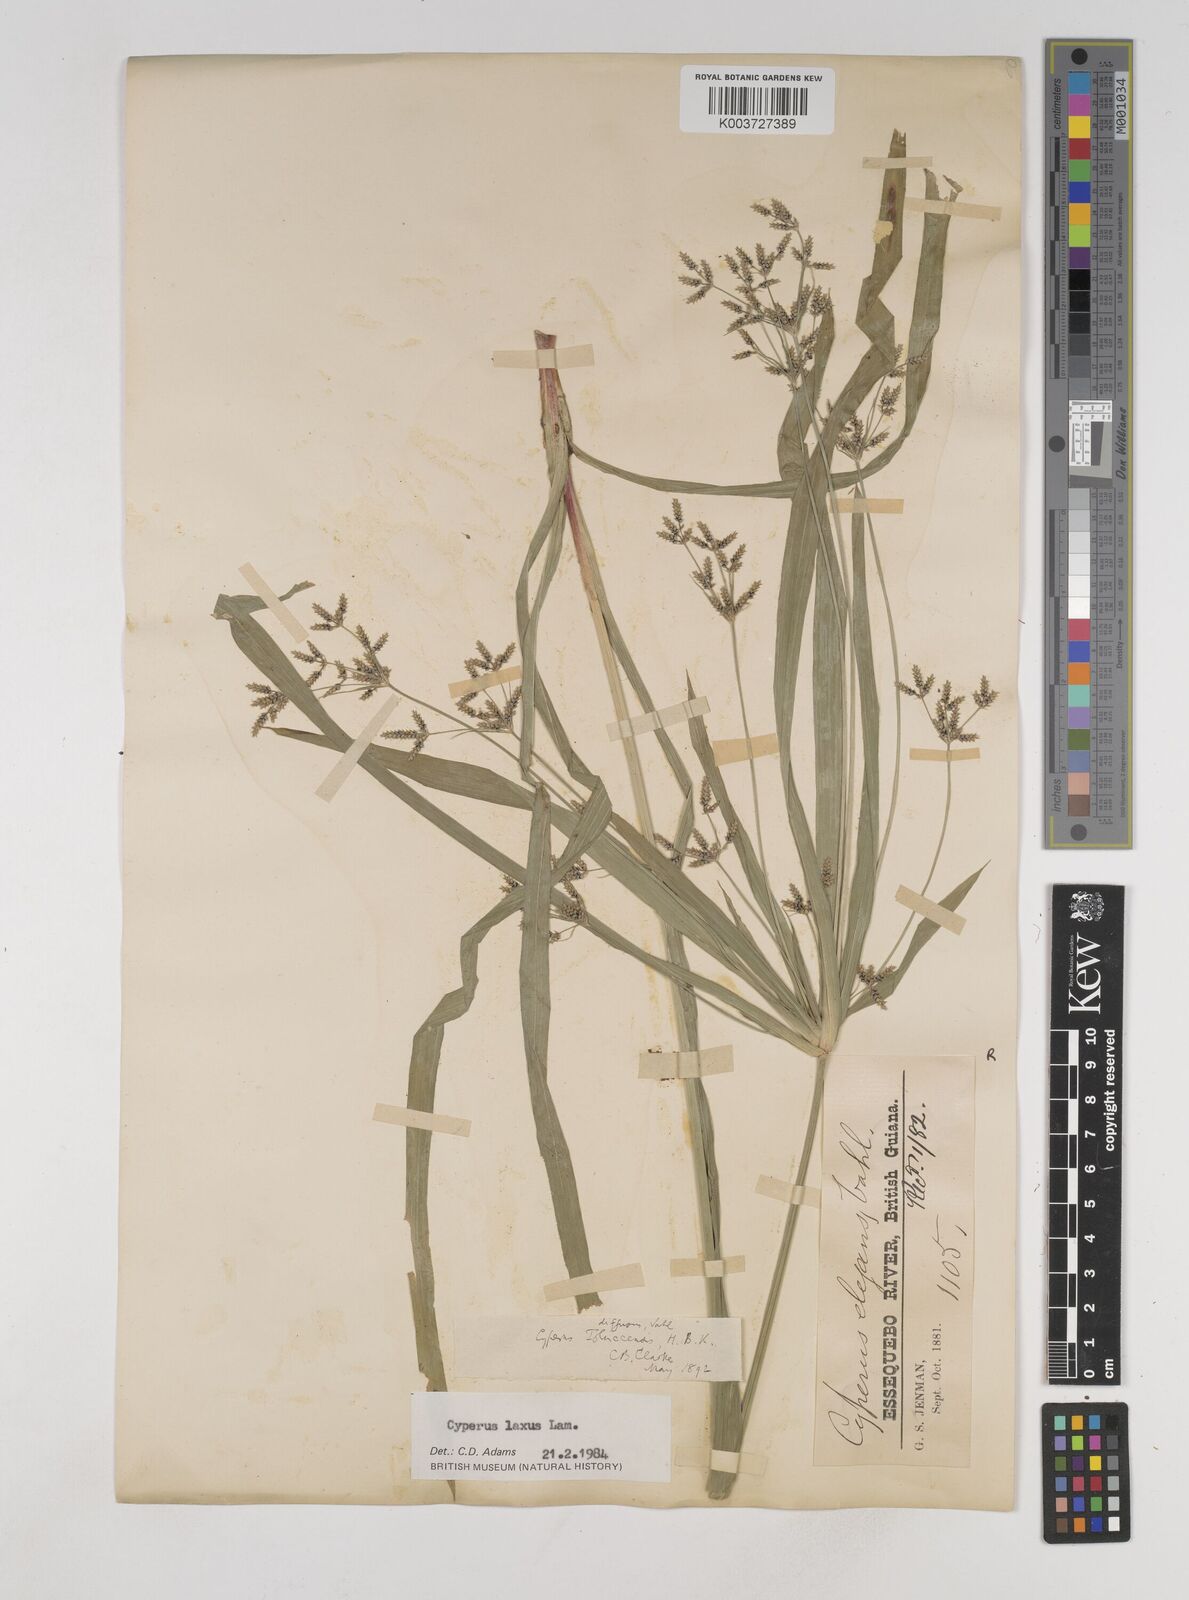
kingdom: Plantae
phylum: Tracheophyta
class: Liliopsida
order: Poales
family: Cyperaceae
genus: Cyperus
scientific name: Cyperus chalaranthus
